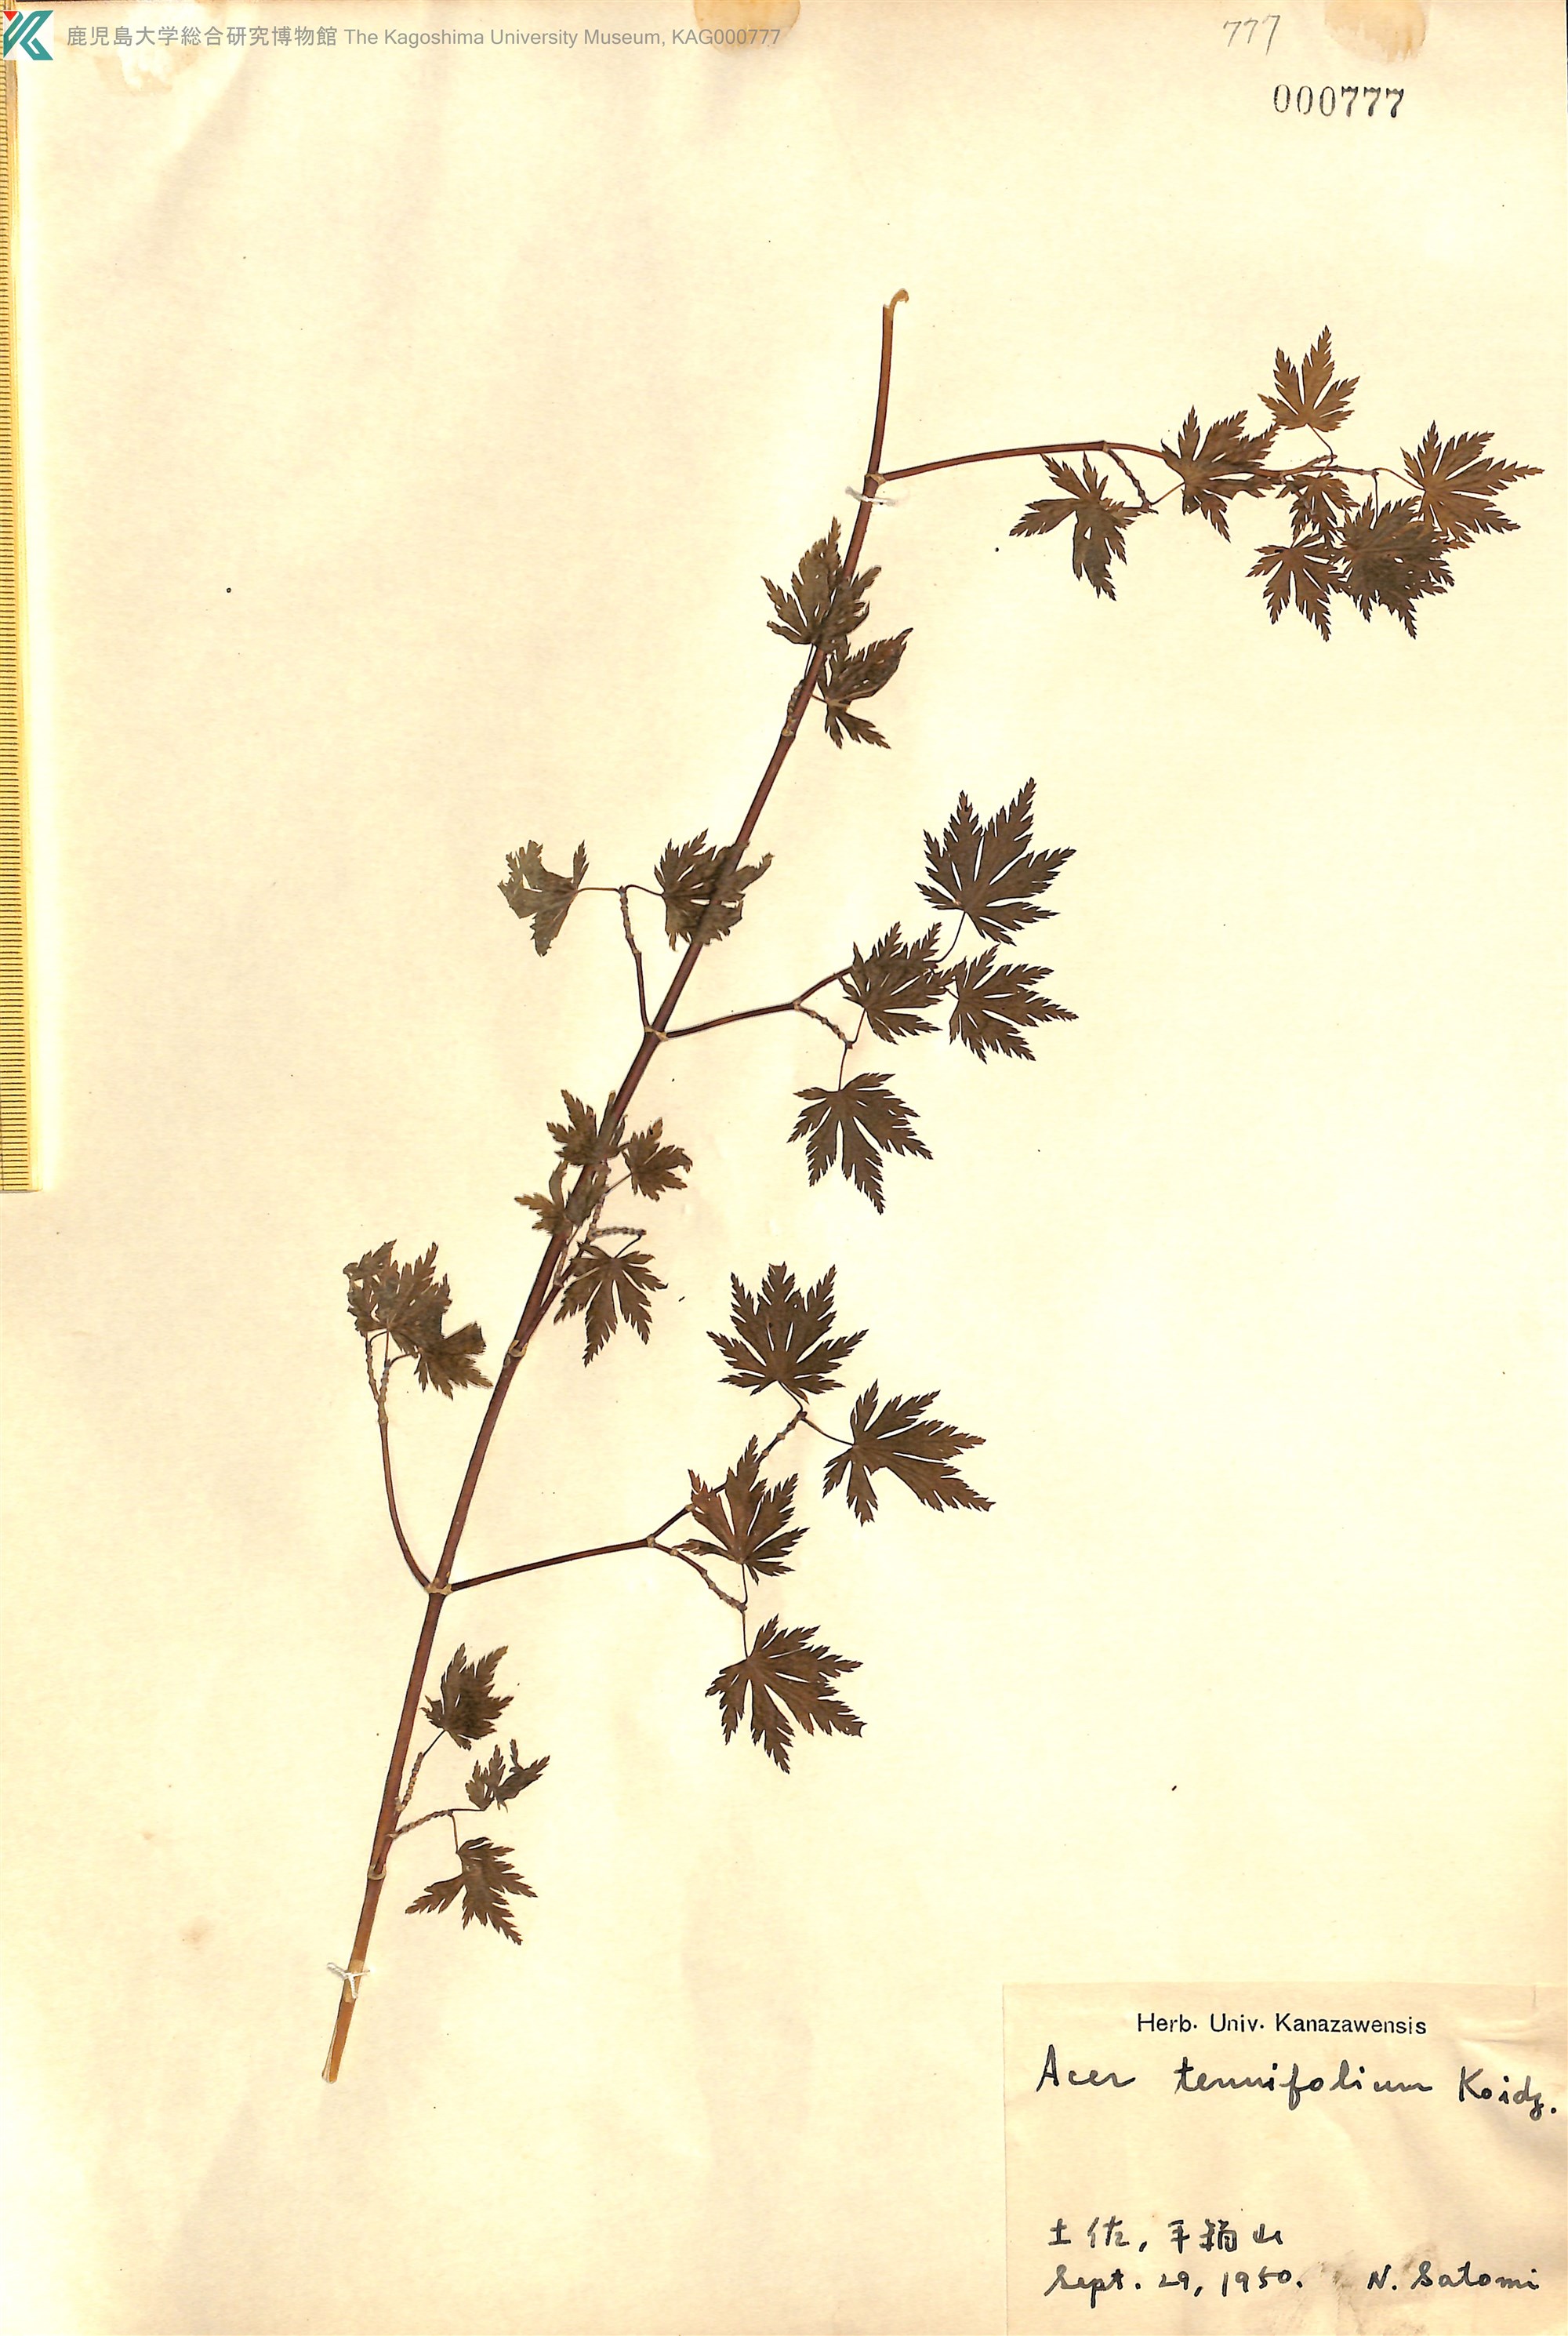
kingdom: Plantae
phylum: Tracheophyta
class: Magnoliopsida
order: Sapindales
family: Sapindaceae
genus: Acer
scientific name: Acer shirasawanum
